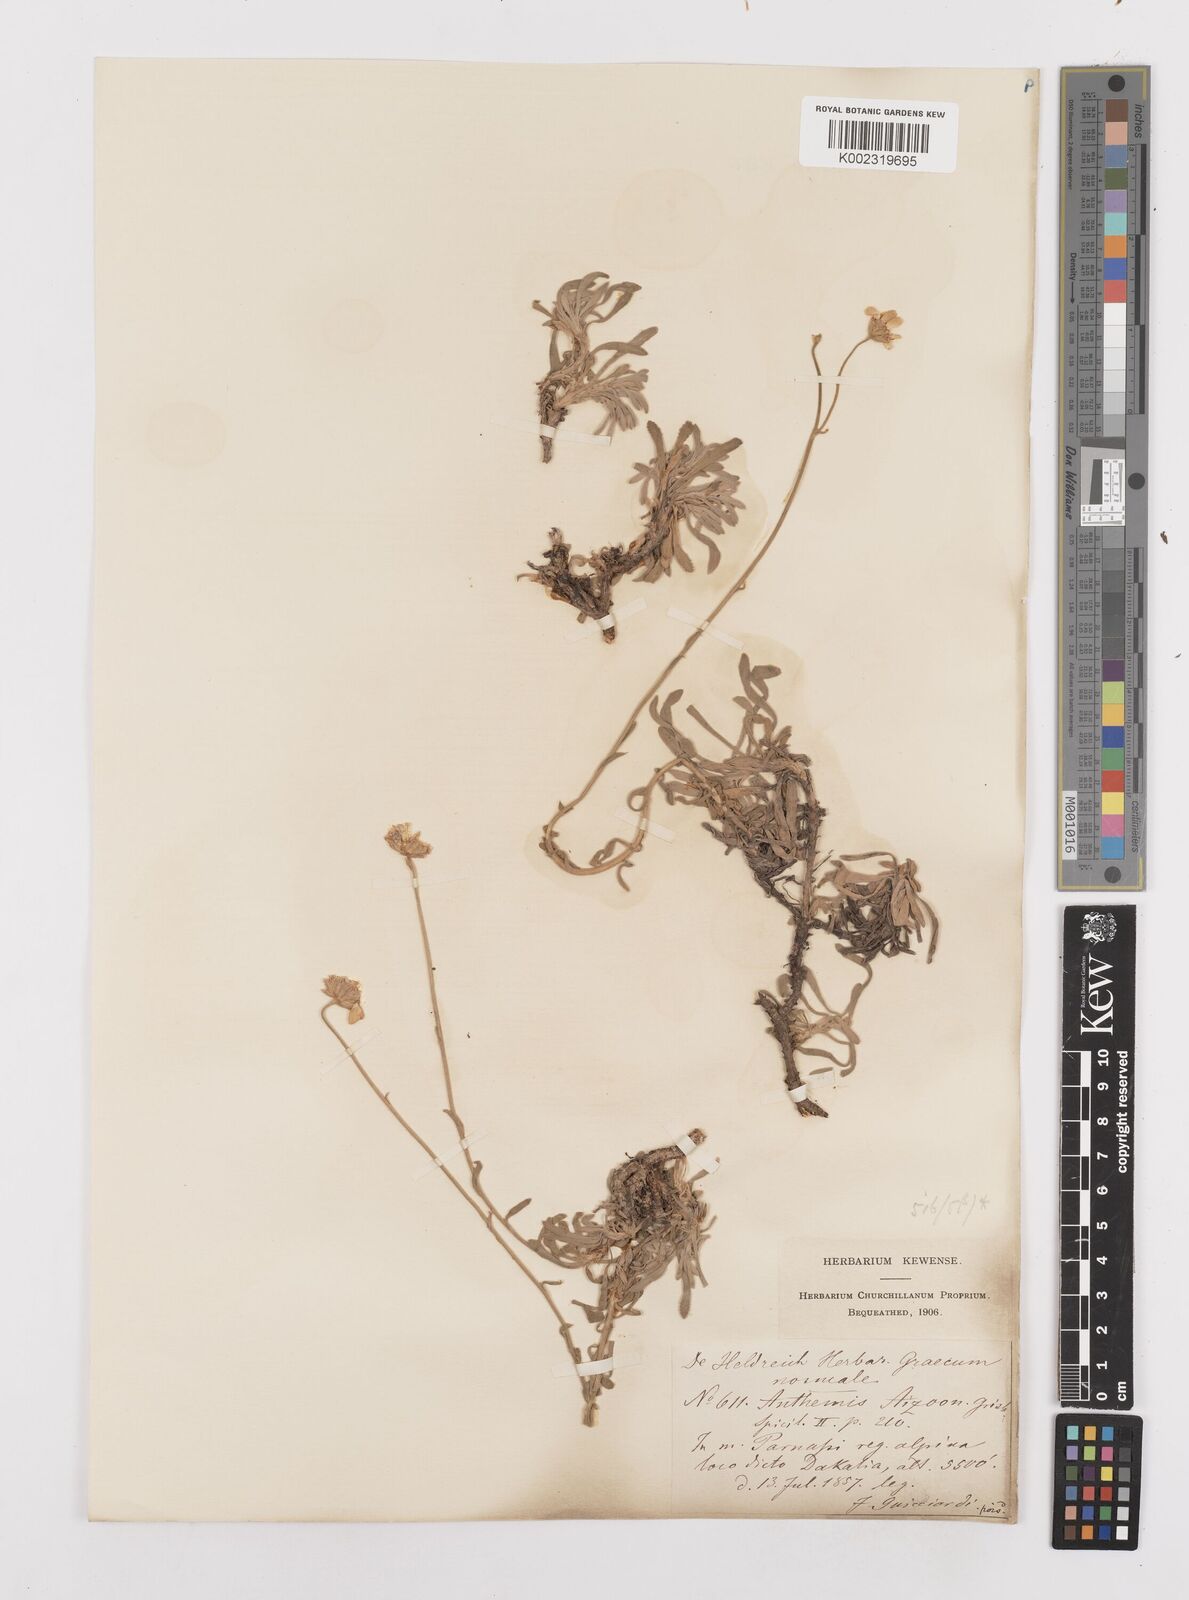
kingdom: Plantae
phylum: Tracheophyta
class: Magnoliopsida
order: Asterales
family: Asteraceae
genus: Achillea
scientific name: Achillea ageratifolia
